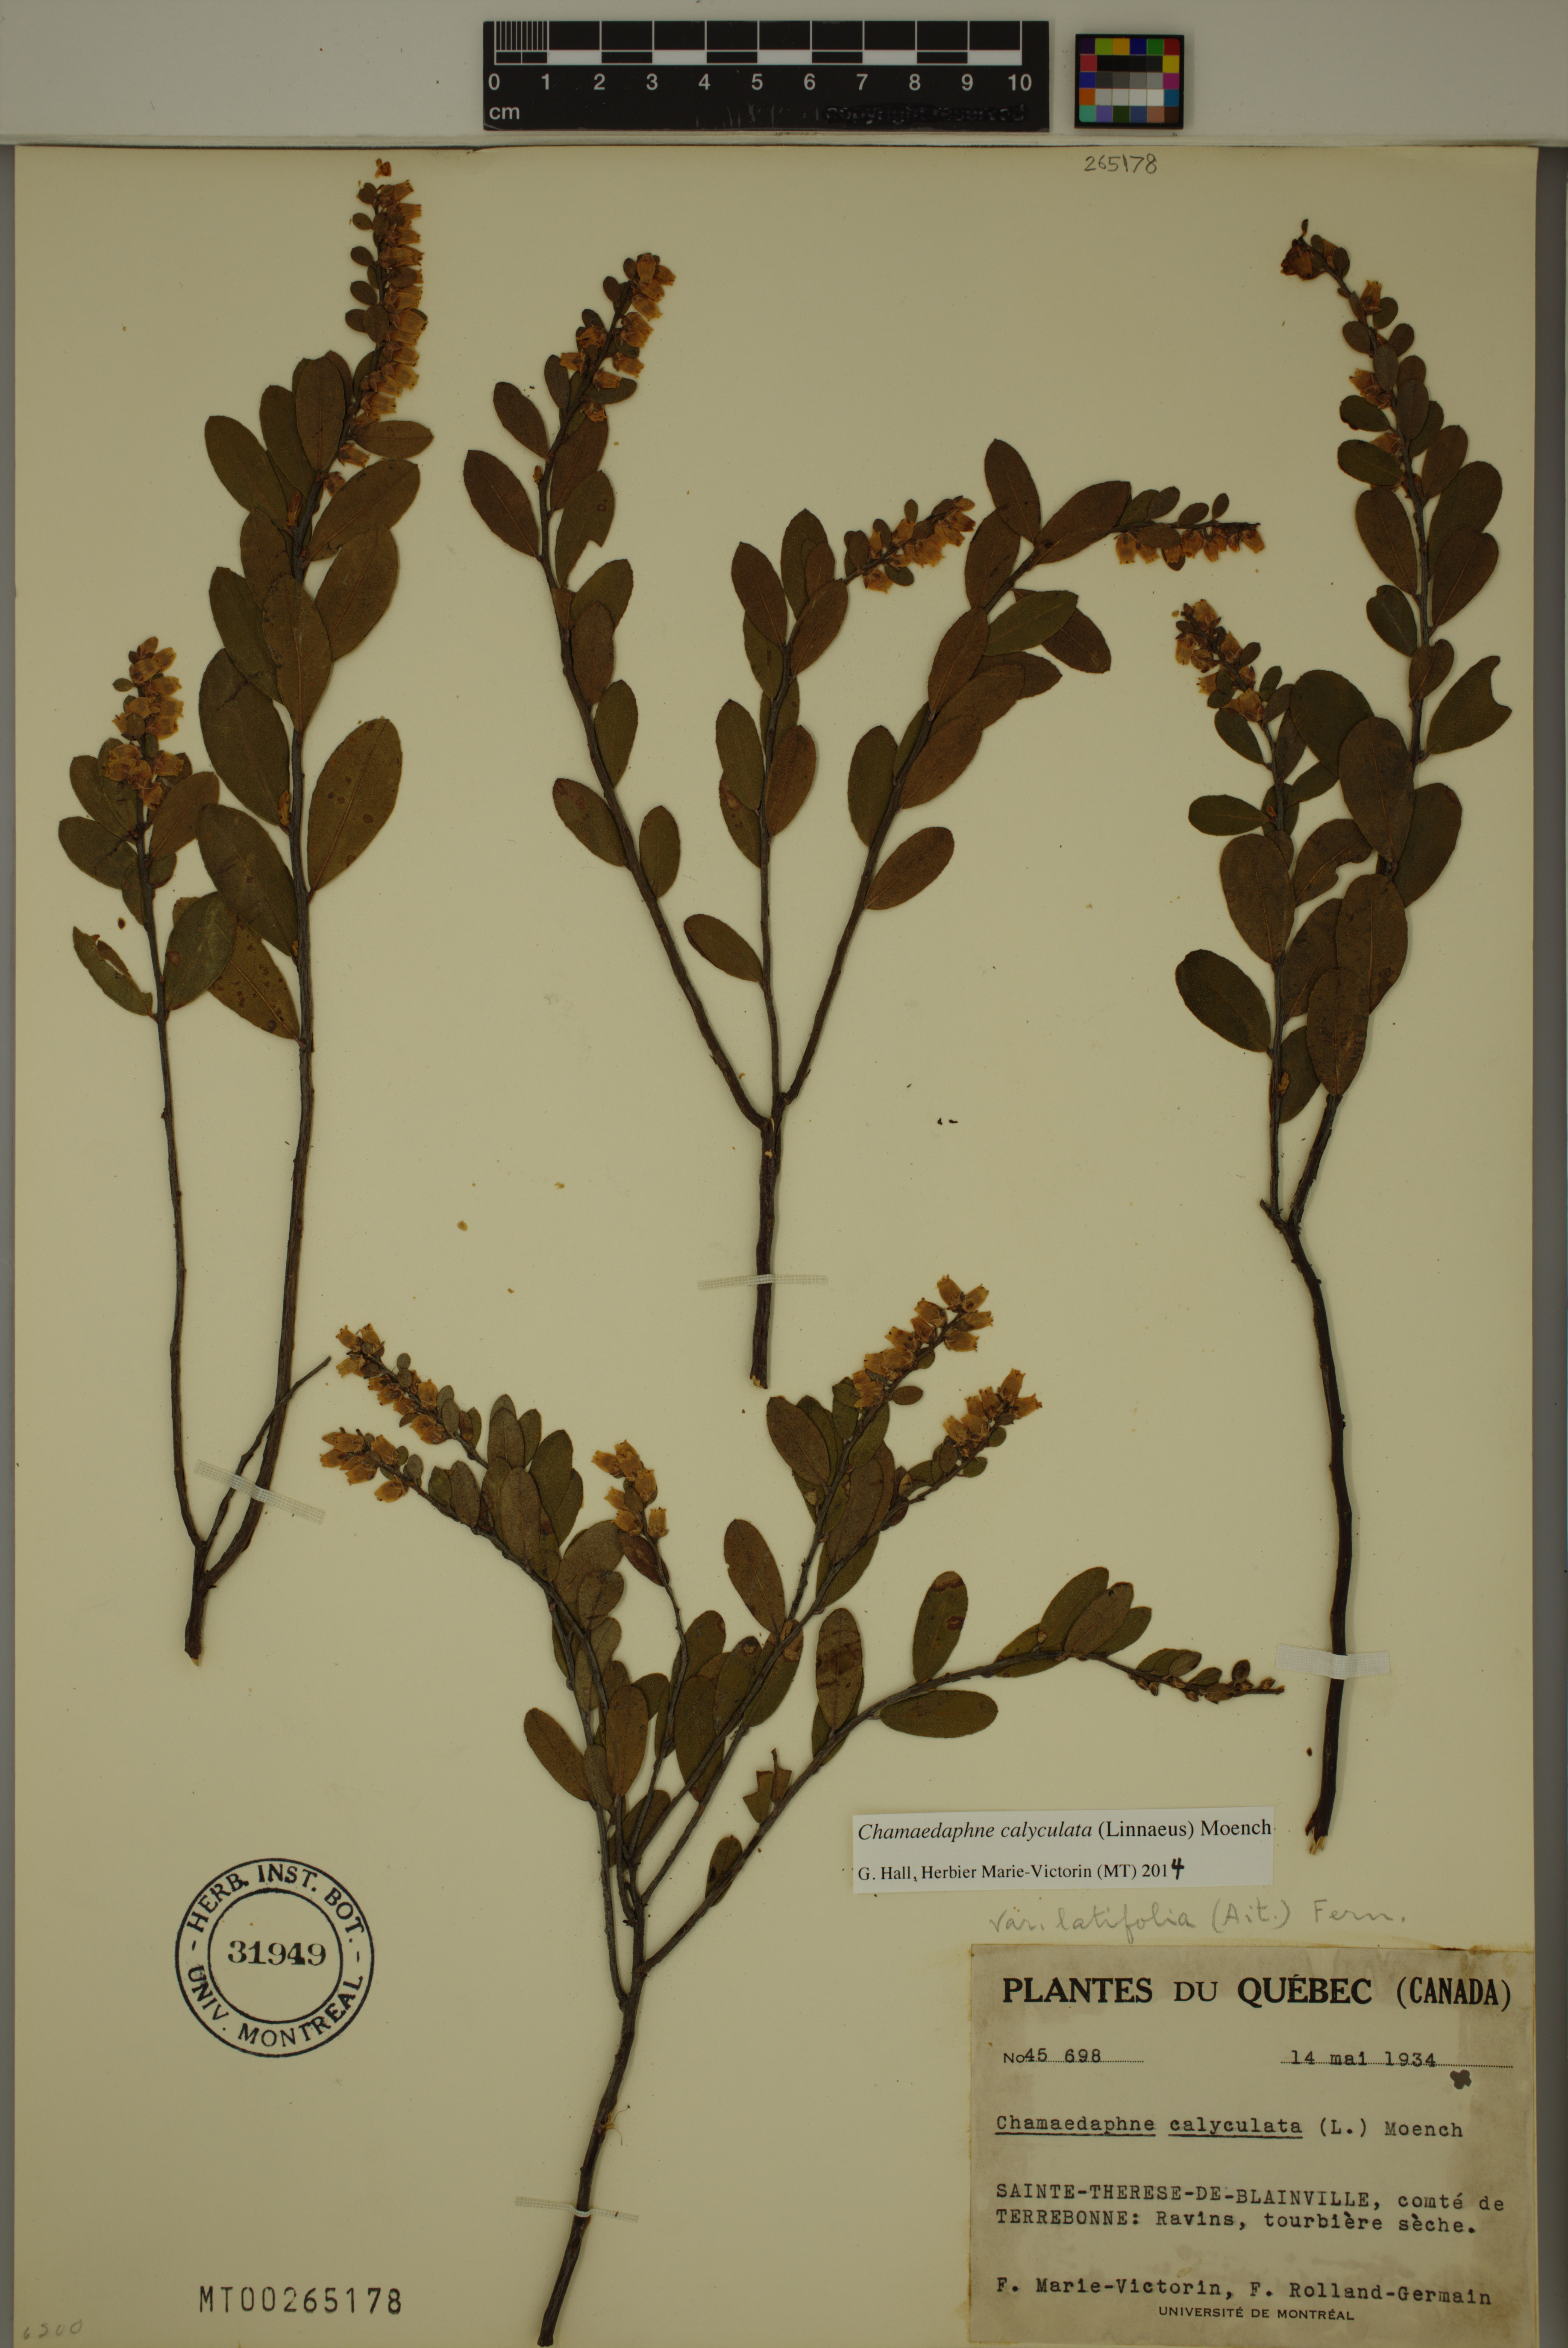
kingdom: Plantae
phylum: Tracheophyta
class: Magnoliopsida
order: Ericales
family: Ericaceae
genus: Chamaedaphne
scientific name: Chamaedaphne calyculata
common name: Leatherleaf
